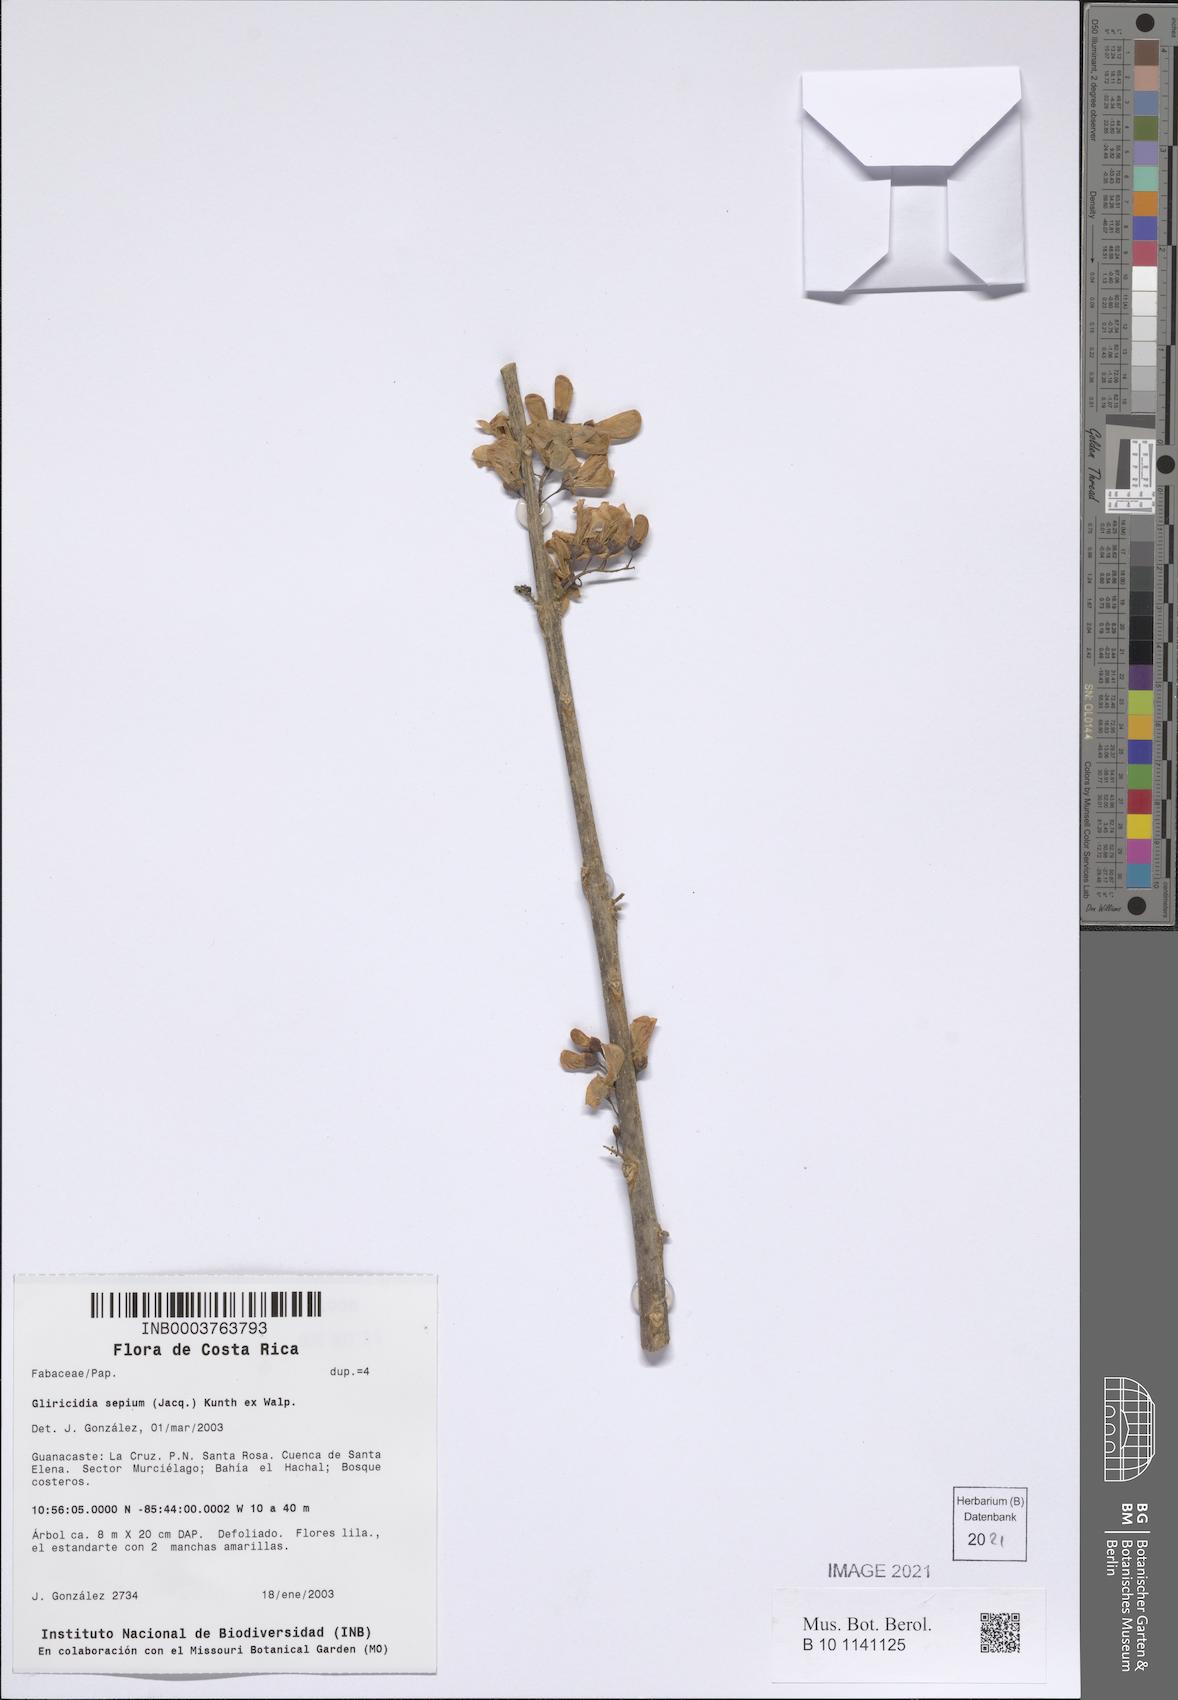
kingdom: Plantae
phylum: Tracheophyta
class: Magnoliopsida
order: Fabales
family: Fabaceae
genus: Gliricidia
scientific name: Gliricidia sepium
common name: Quickstick
